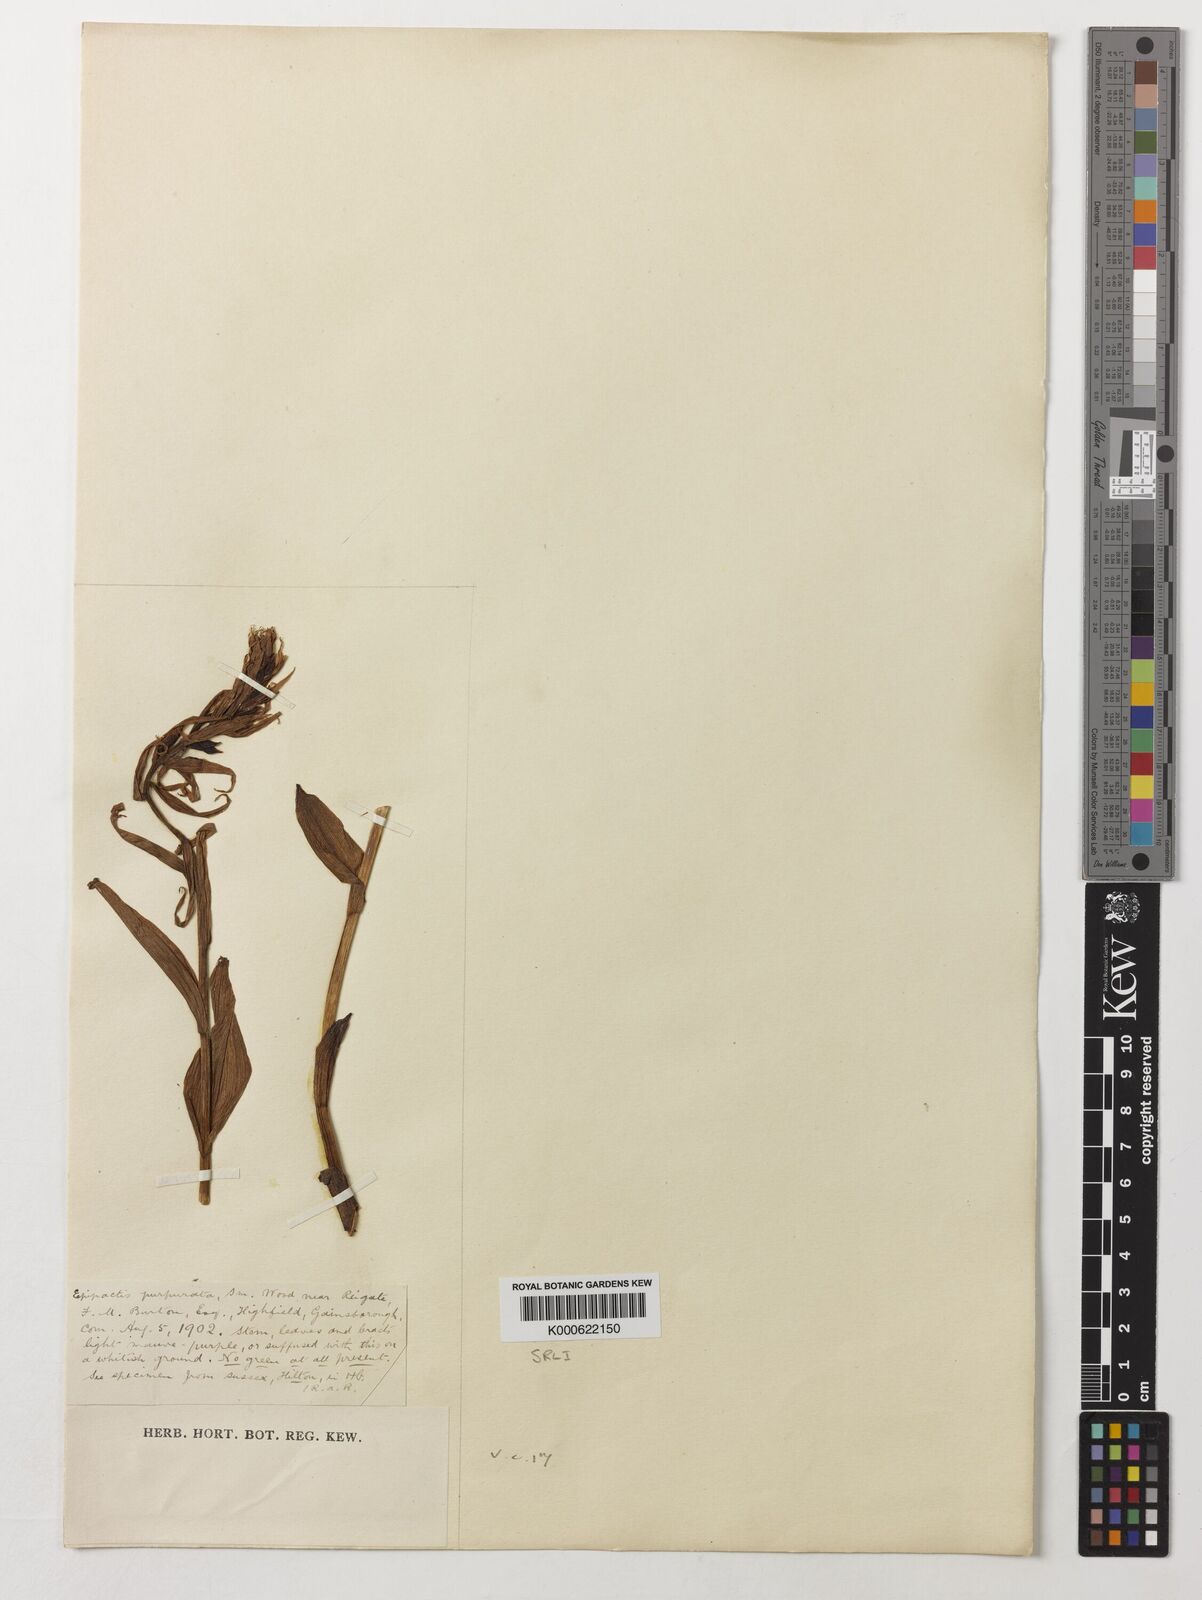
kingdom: Plantae
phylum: Tracheophyta
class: Liliopsida
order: Asparagales
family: Orchidaceae
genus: Epipactis
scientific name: Epipactis purpurata
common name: Violet helleborine
